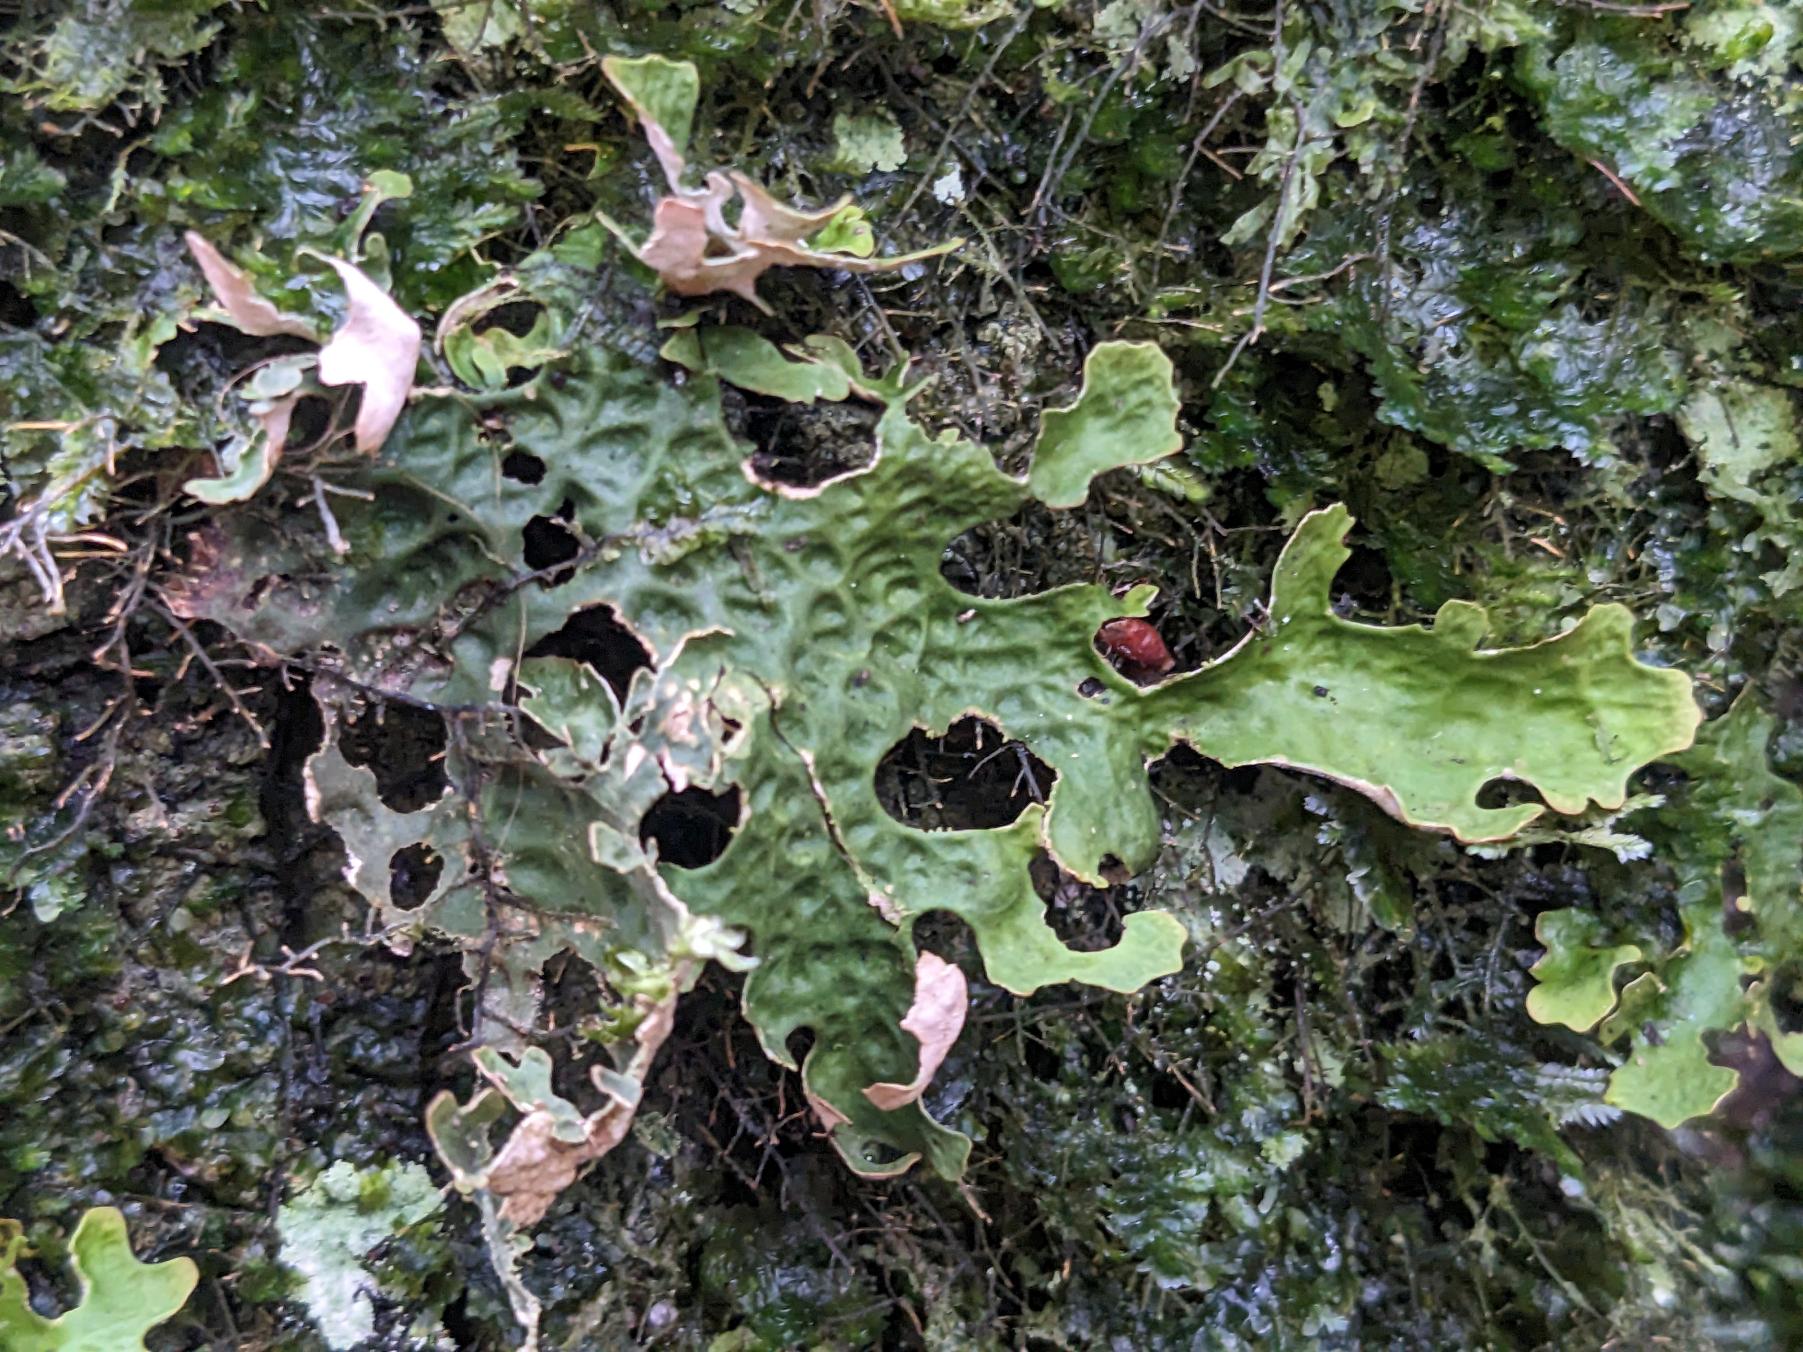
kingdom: Fungi
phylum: Ascomycota
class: Lecanoromycetes
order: Peltigerales
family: Lobariaceae
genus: Lobaria
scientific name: Lobaria pulmonaria
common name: Almindelig lungelav
